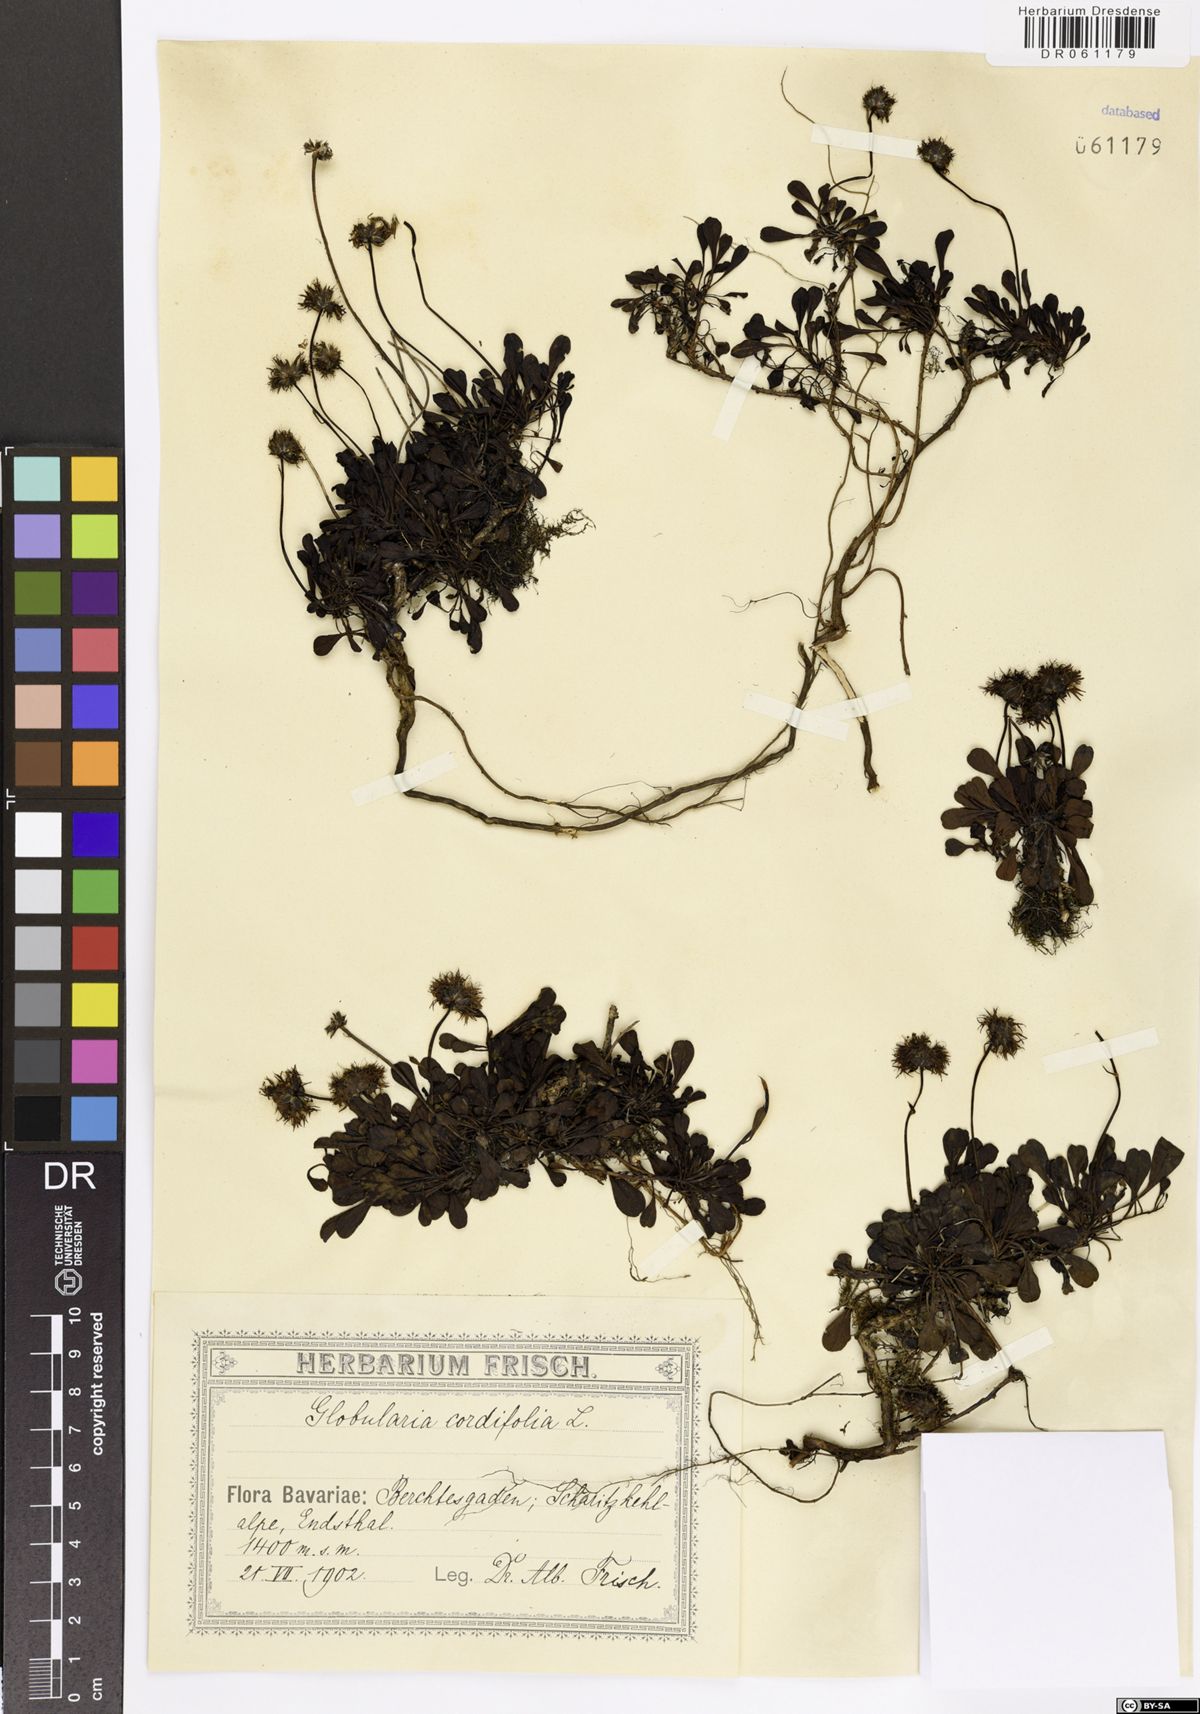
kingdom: Plantae
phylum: Tracheophyta
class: Magnoliopsida
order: Lamiales
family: Plantaginaceae
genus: Globularia
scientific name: Globularia cordifolia
